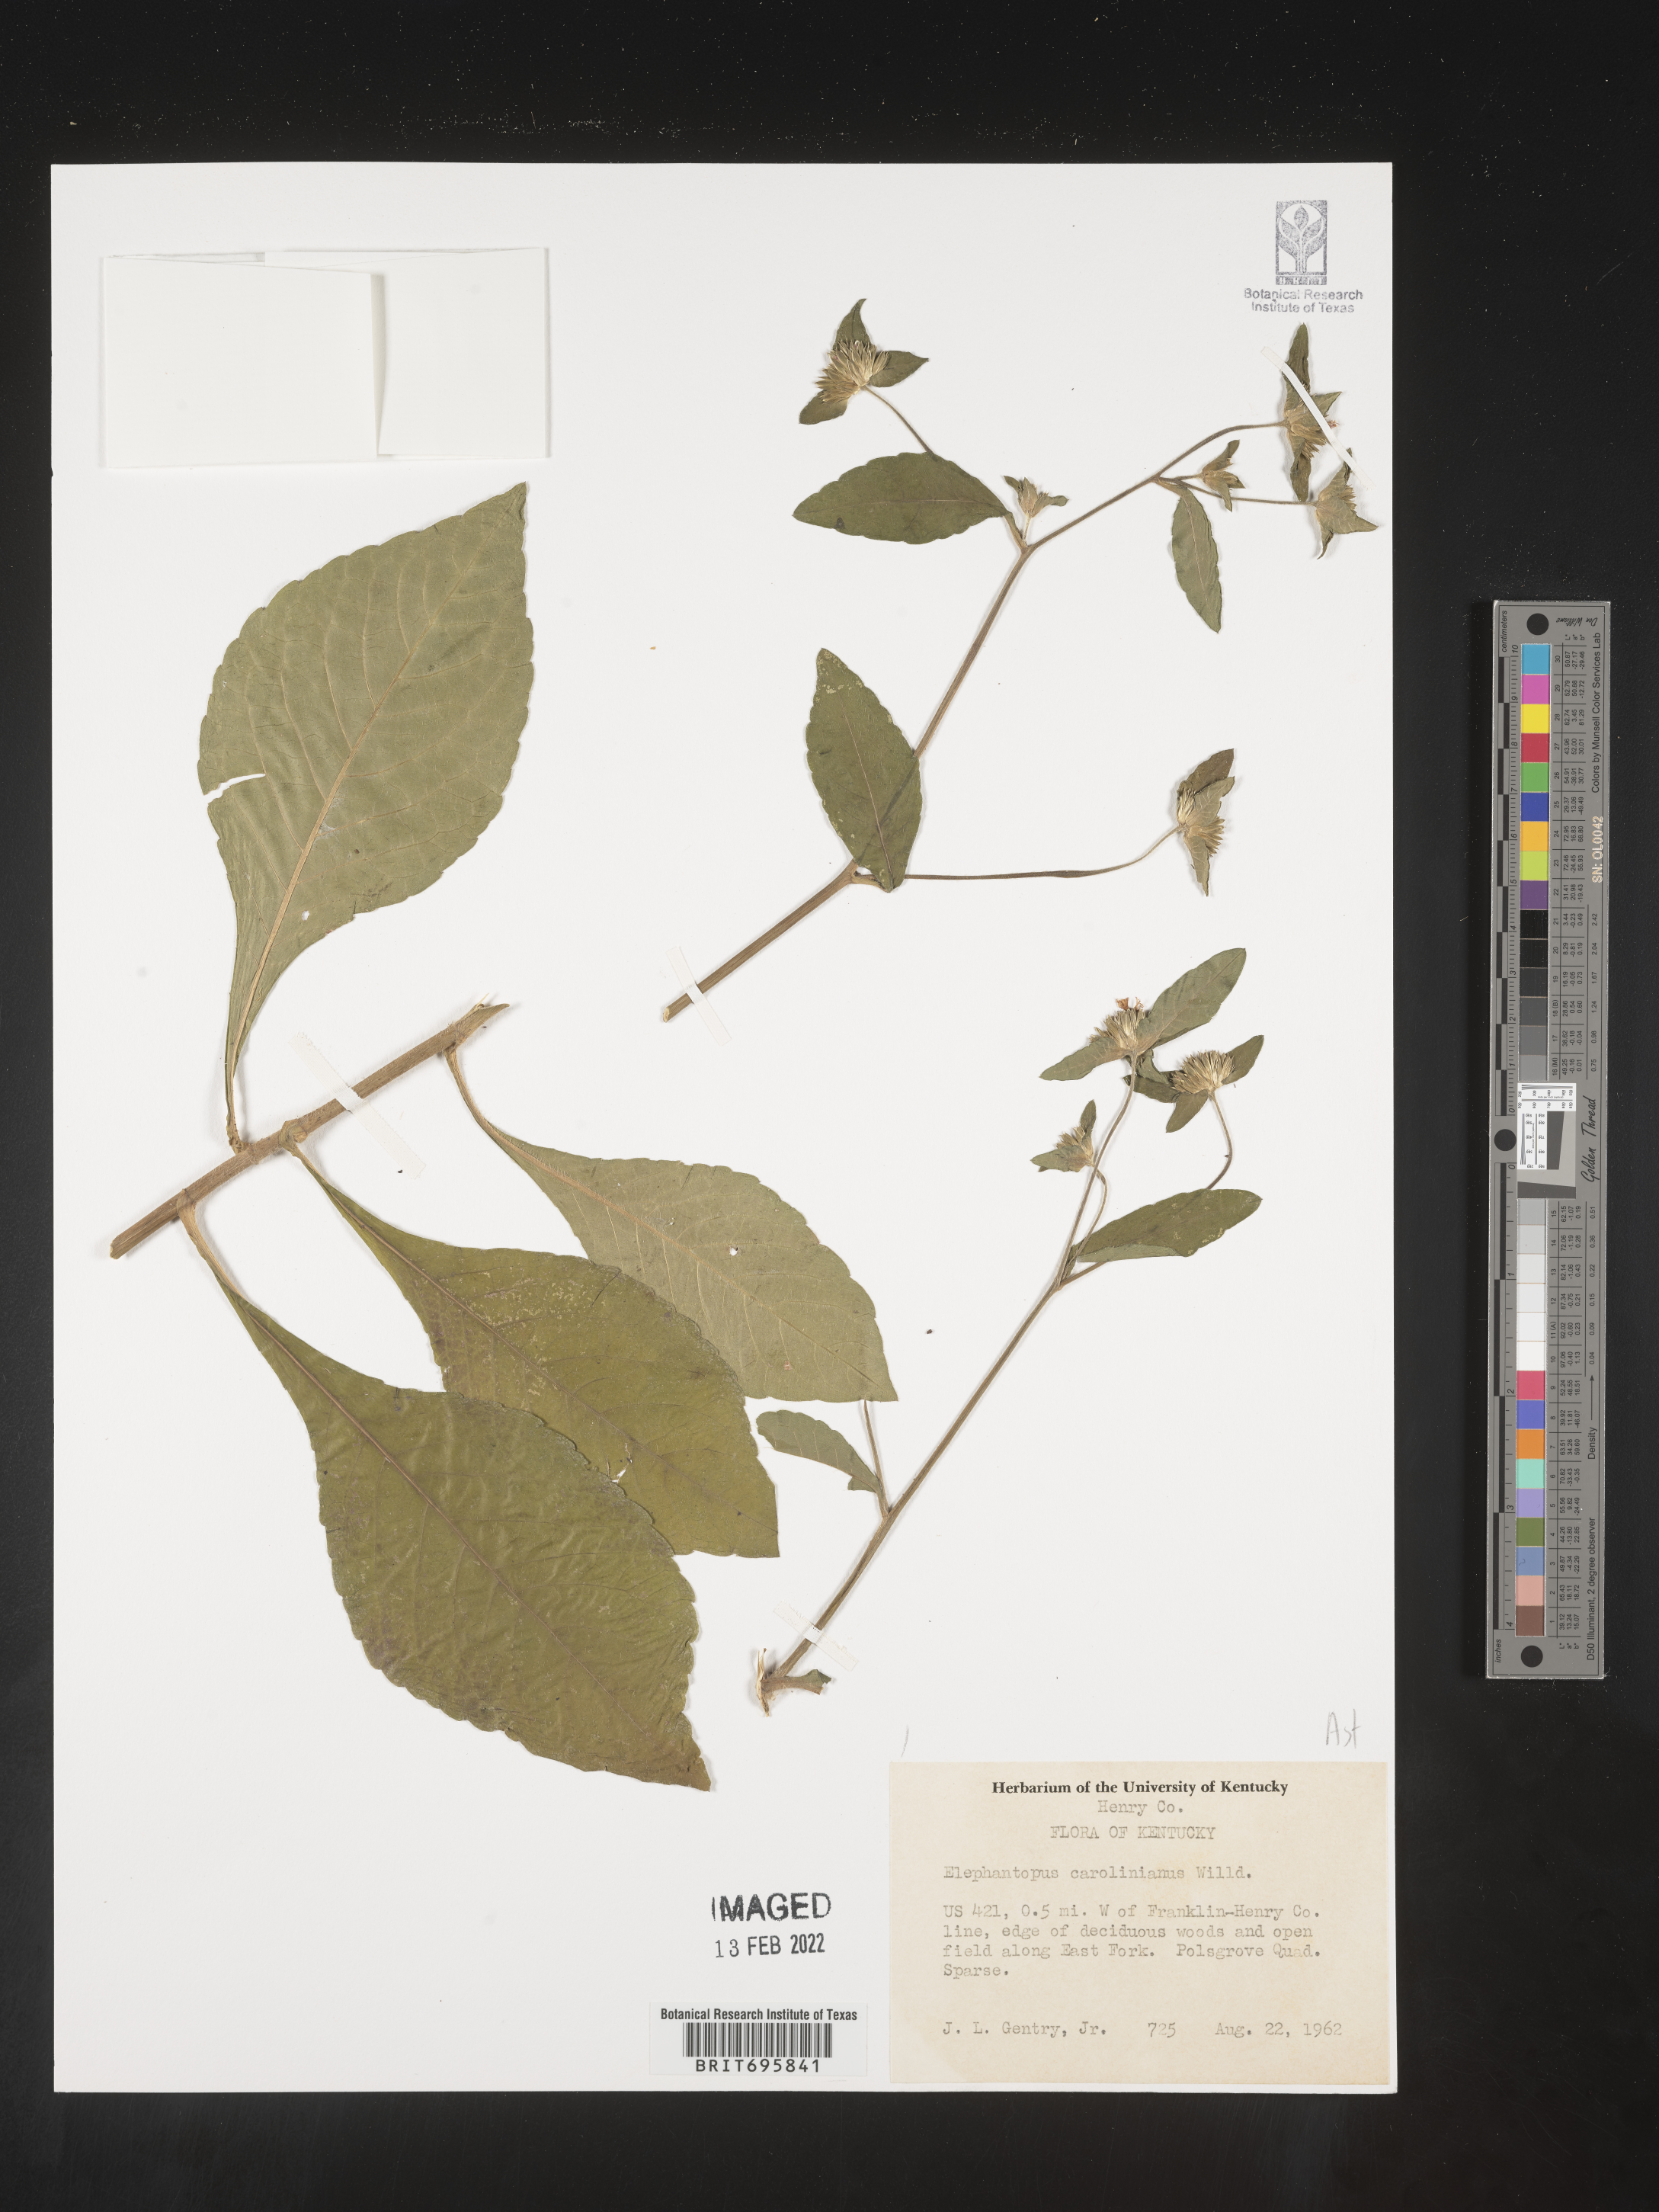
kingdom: Plantae
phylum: Tracheophyta
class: Magnoliopsida
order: Asterales
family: Asteraceae
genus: Elephantopus
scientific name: Elephantopus carolinianus
